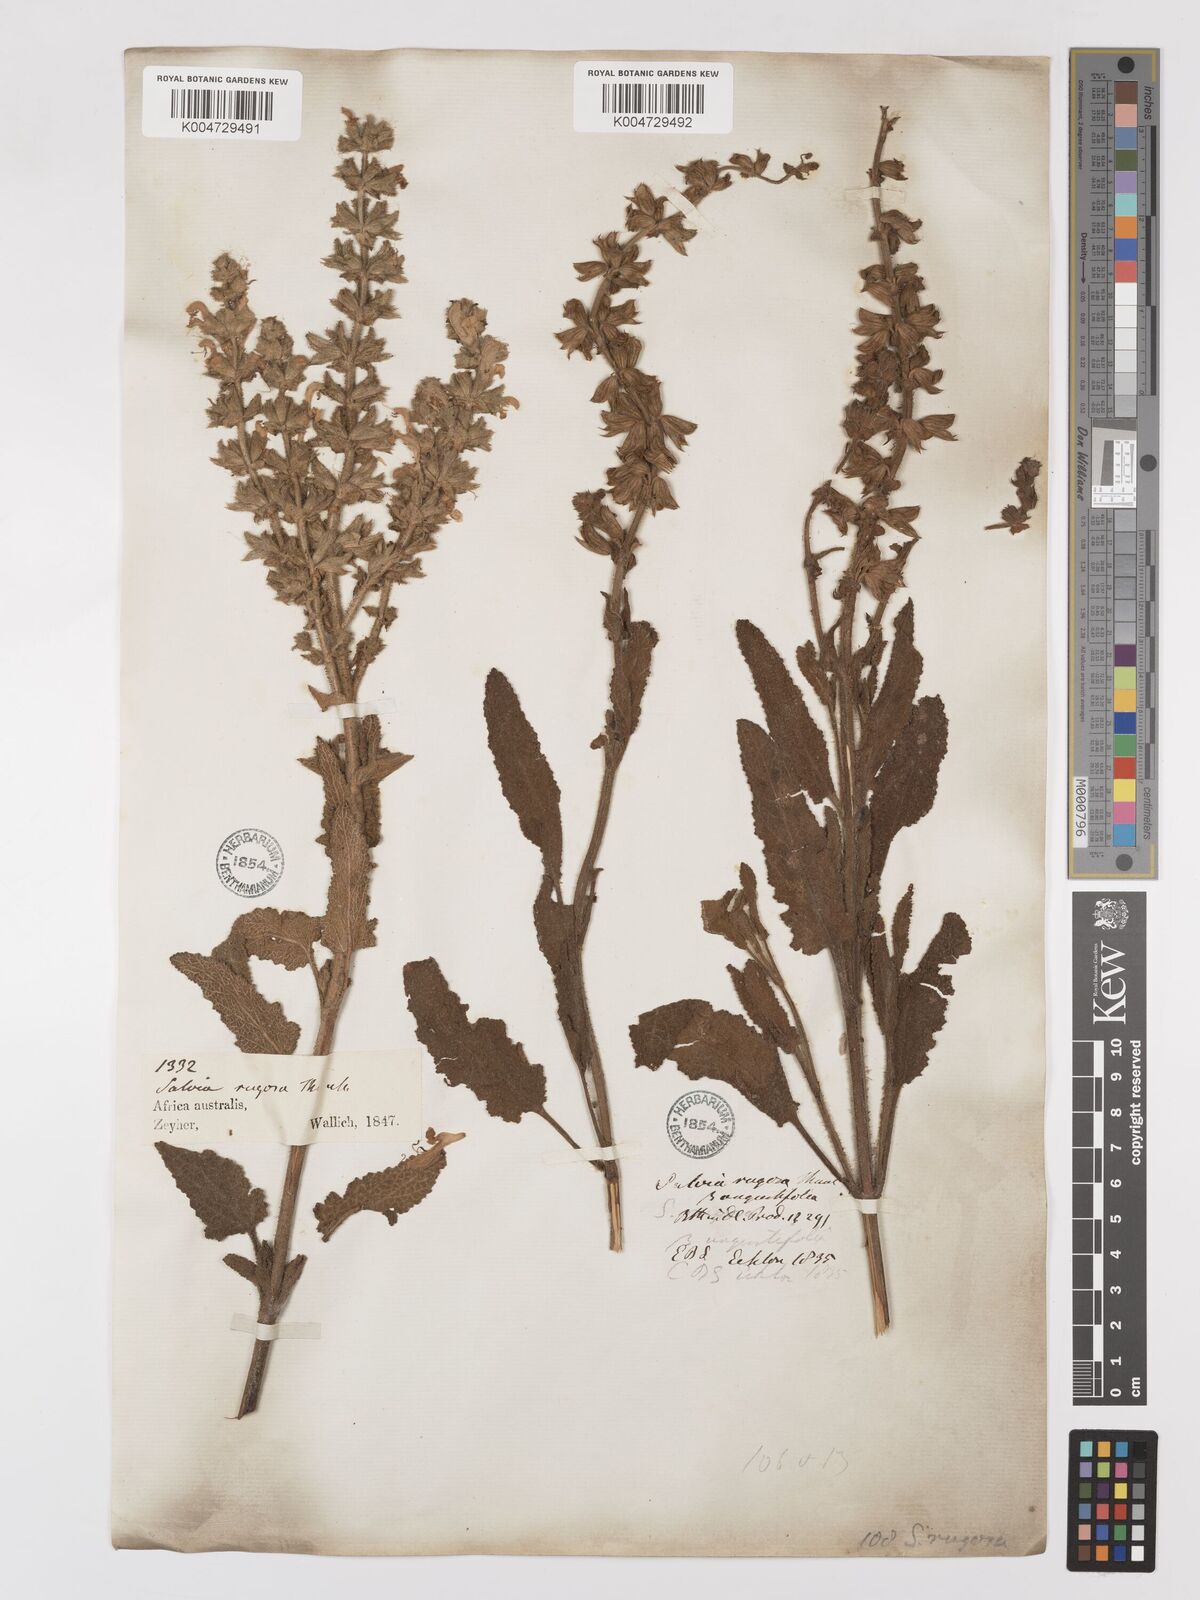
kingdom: Plantae
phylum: Tracheophyta
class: Magnoliopsida
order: Lamiales
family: Lamiaceae
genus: Salvia
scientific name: Salvia
